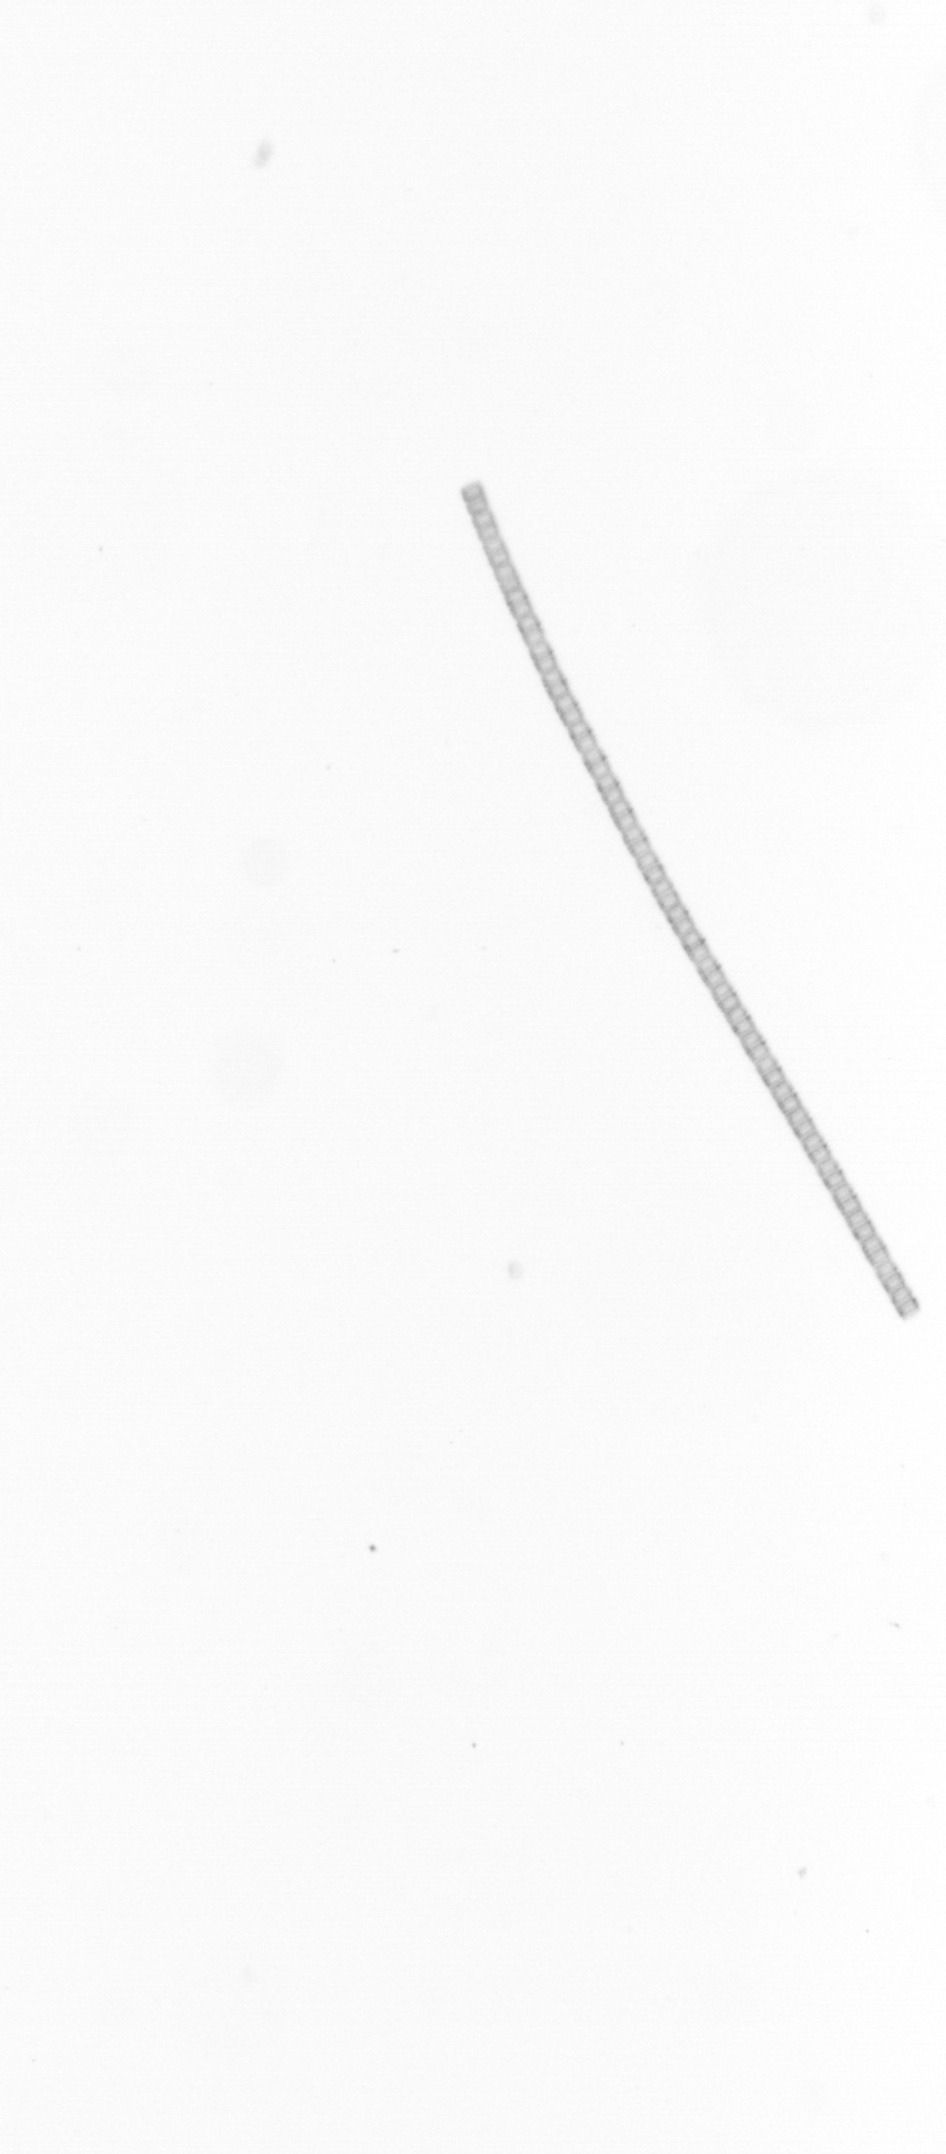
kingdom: Chromista
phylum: Ochrophyta
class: Bacillariophyceae
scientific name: Bacillariophyceae
